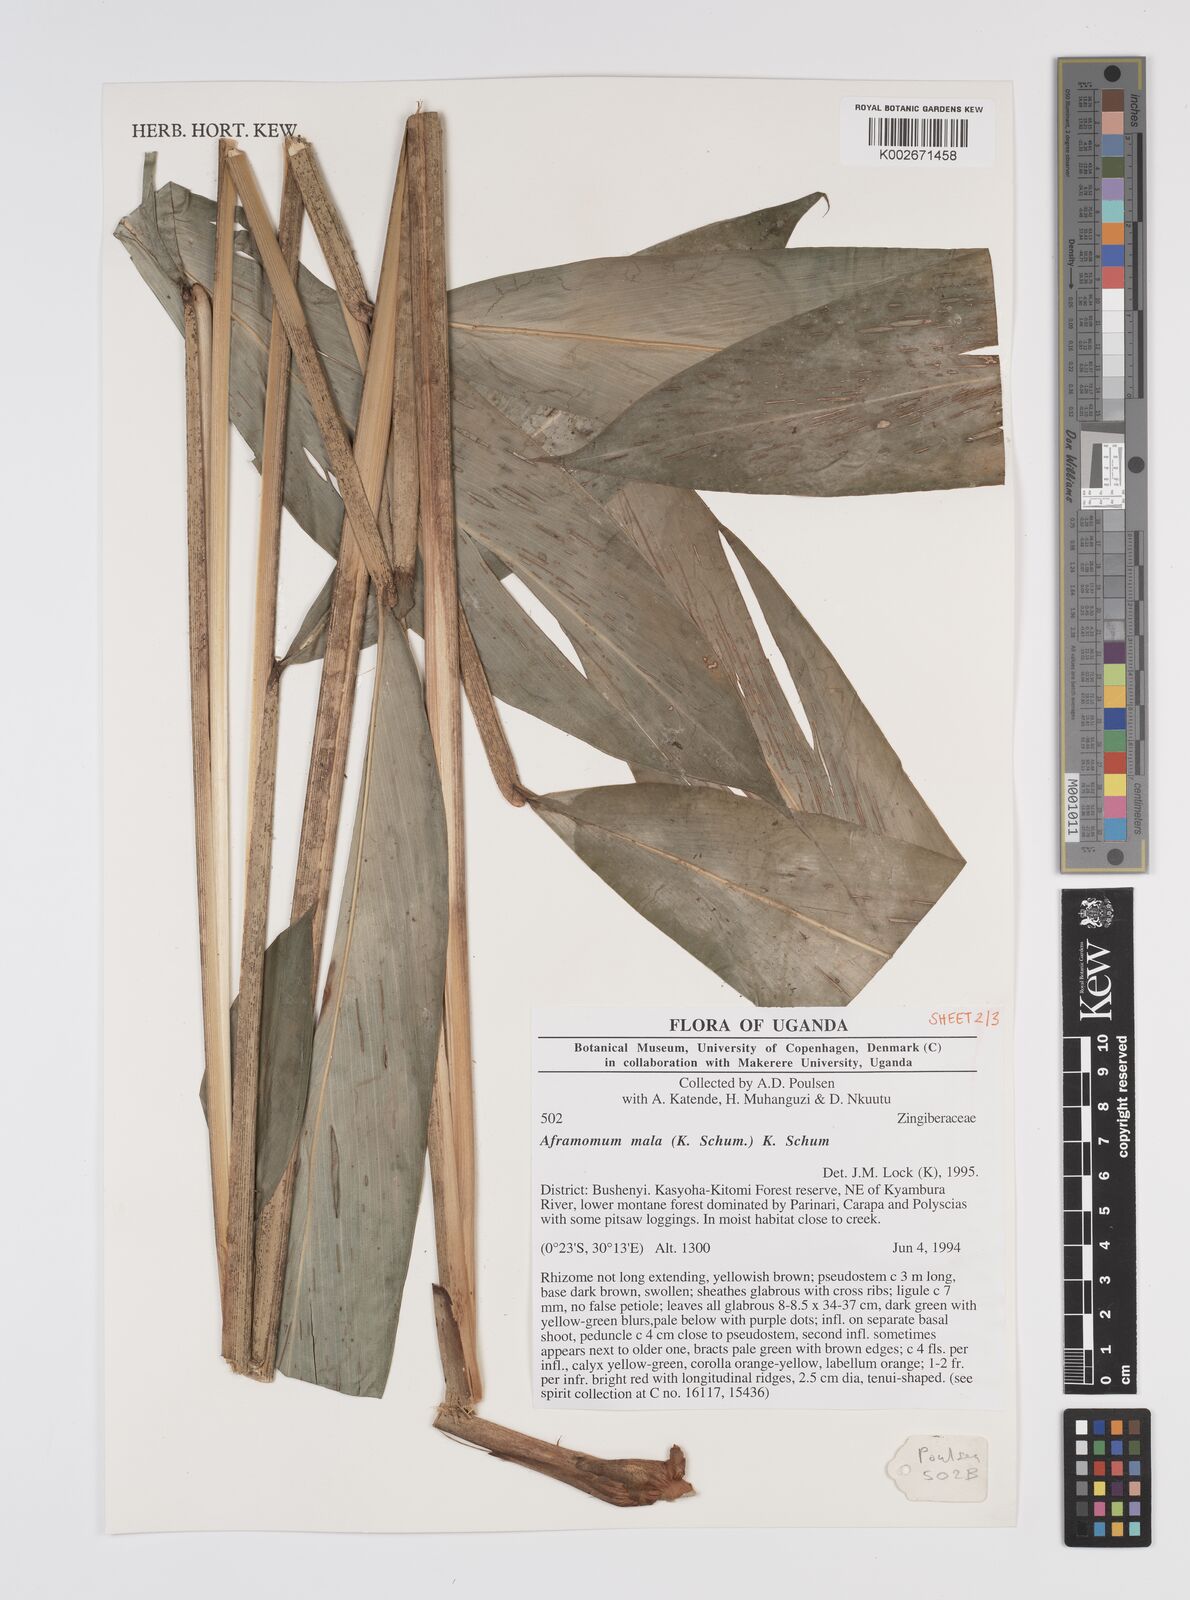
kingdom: Plantae
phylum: Tracheophyta
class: Liliopsida
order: Zingiberales
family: Zingiberaceae
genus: Aframomum
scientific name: Aframomum daniellii
